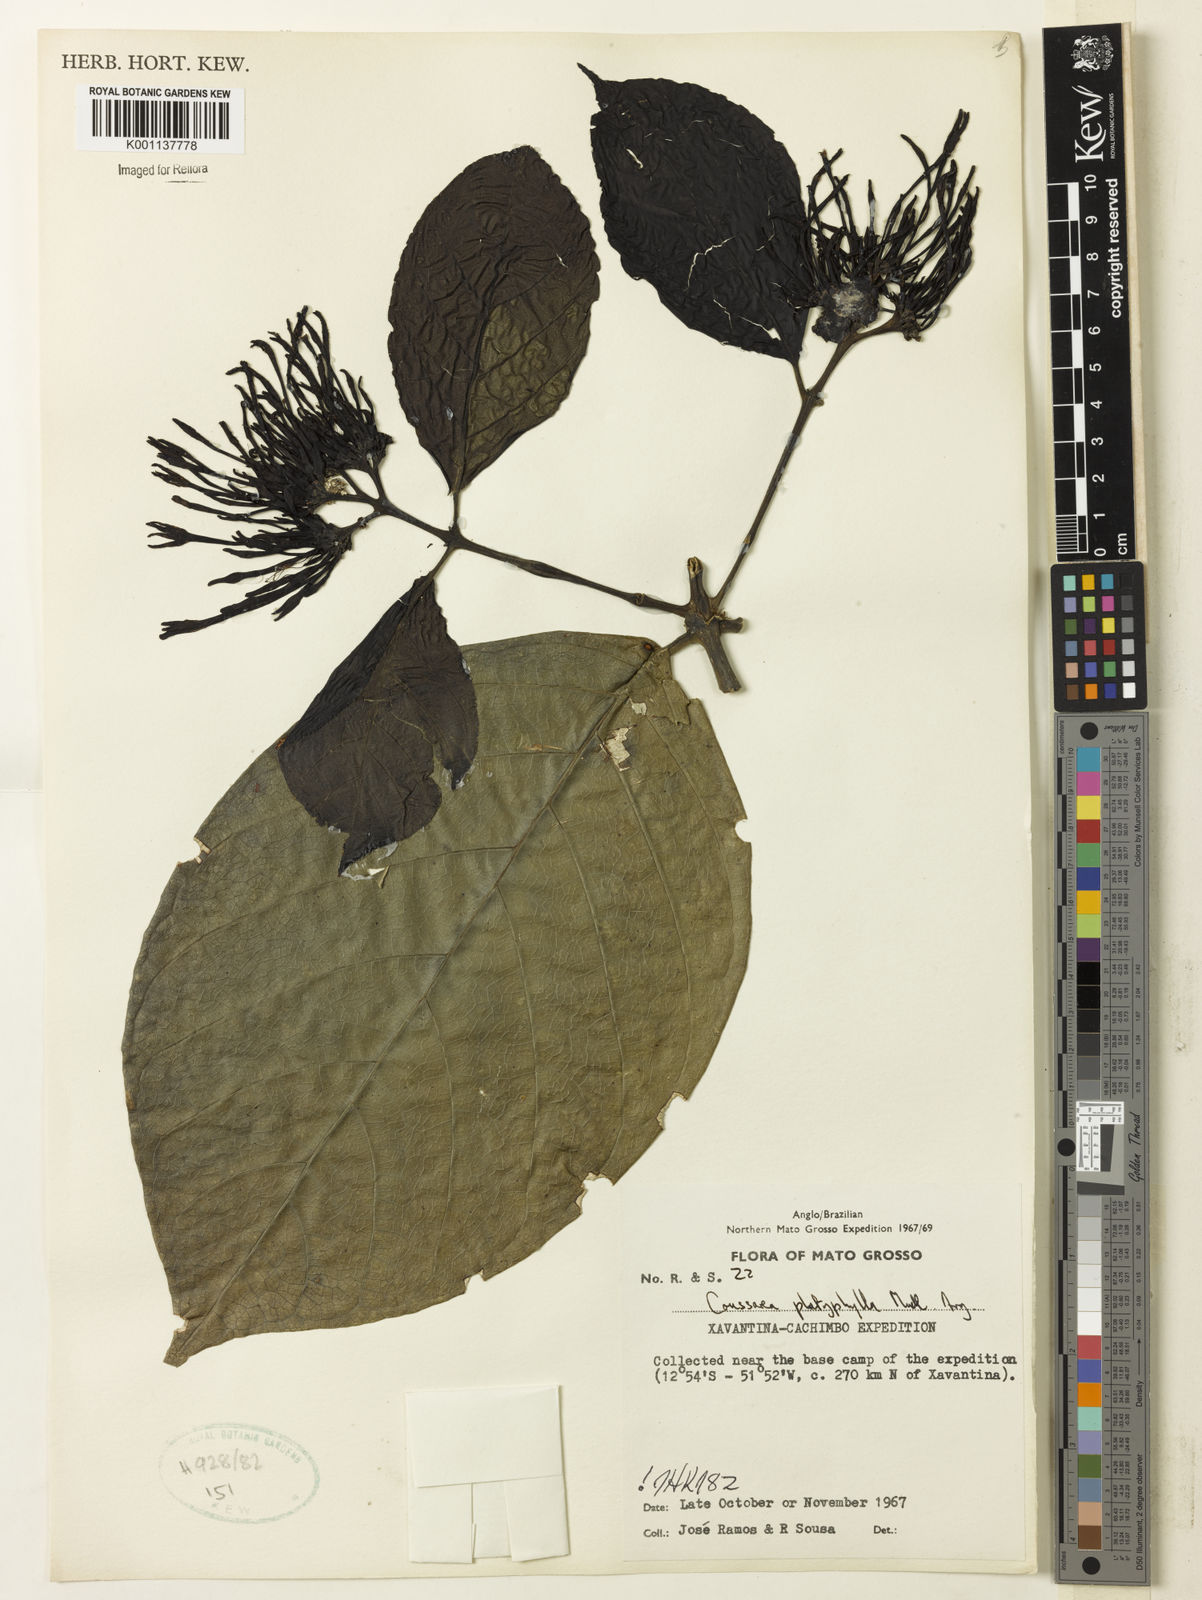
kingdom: Plantae
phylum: Tracheophyta
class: Magnoliopsida
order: Gentianales
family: Rubiaceae
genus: Coussarea
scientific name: Coussarea
